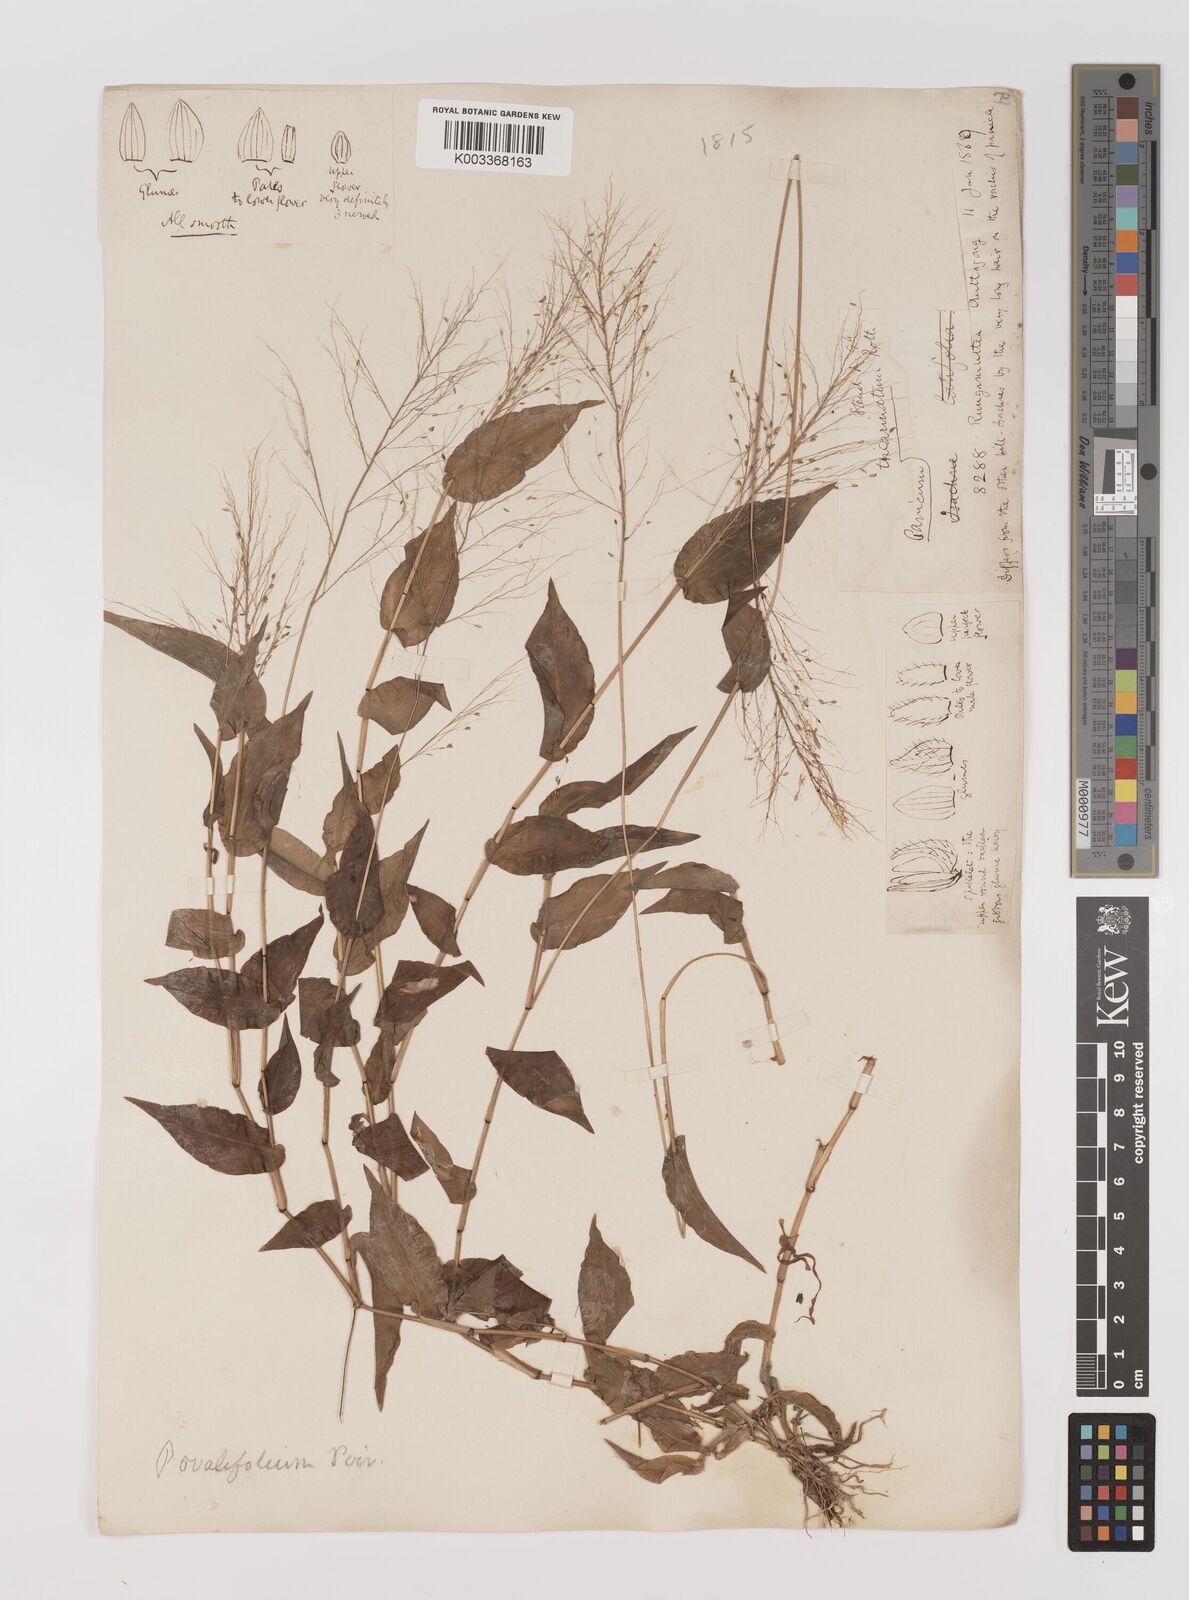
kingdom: Plantae
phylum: Tracheophyta
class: Liliopsida
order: Poales
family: Poaceae
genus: Panicum
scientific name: Panicum brevifolium
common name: Shortleaf panic grass
